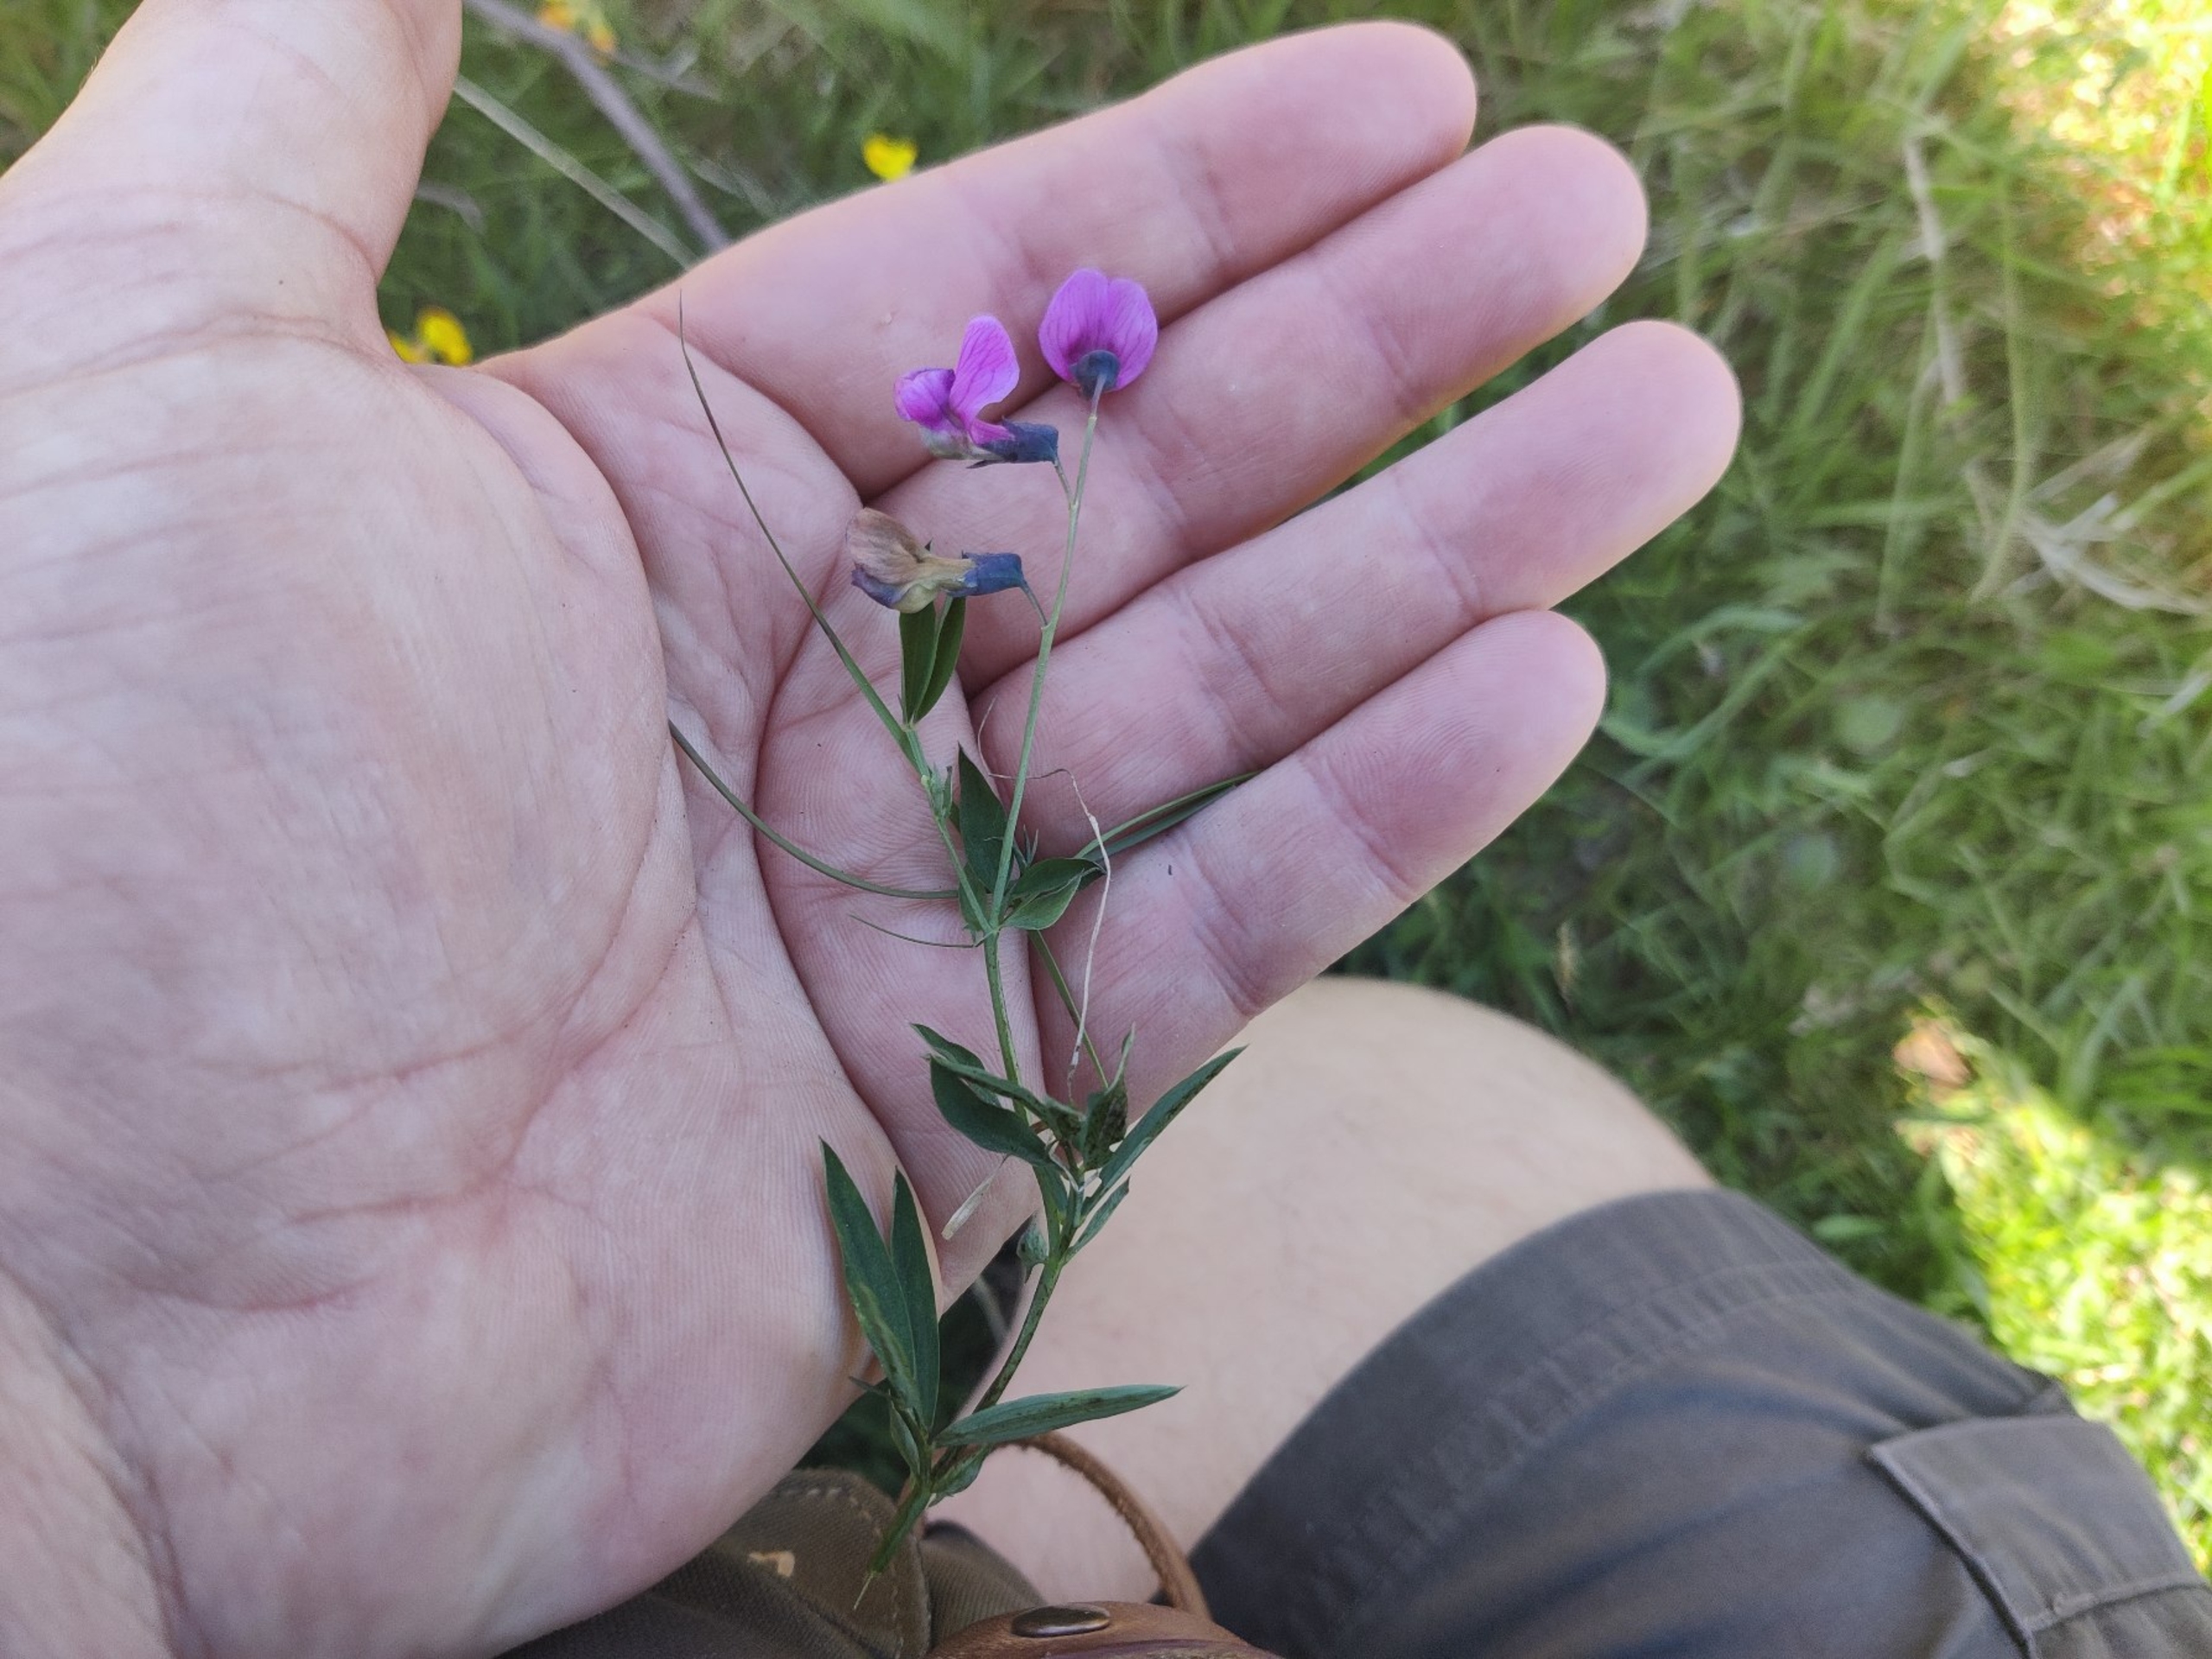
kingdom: Plantae
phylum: Tracheophyta
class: Magnoliopsida
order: Fabales
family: Fabaceae
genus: Lathyrus
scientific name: Lathyrus linifolius
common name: Krat-fladbælg
